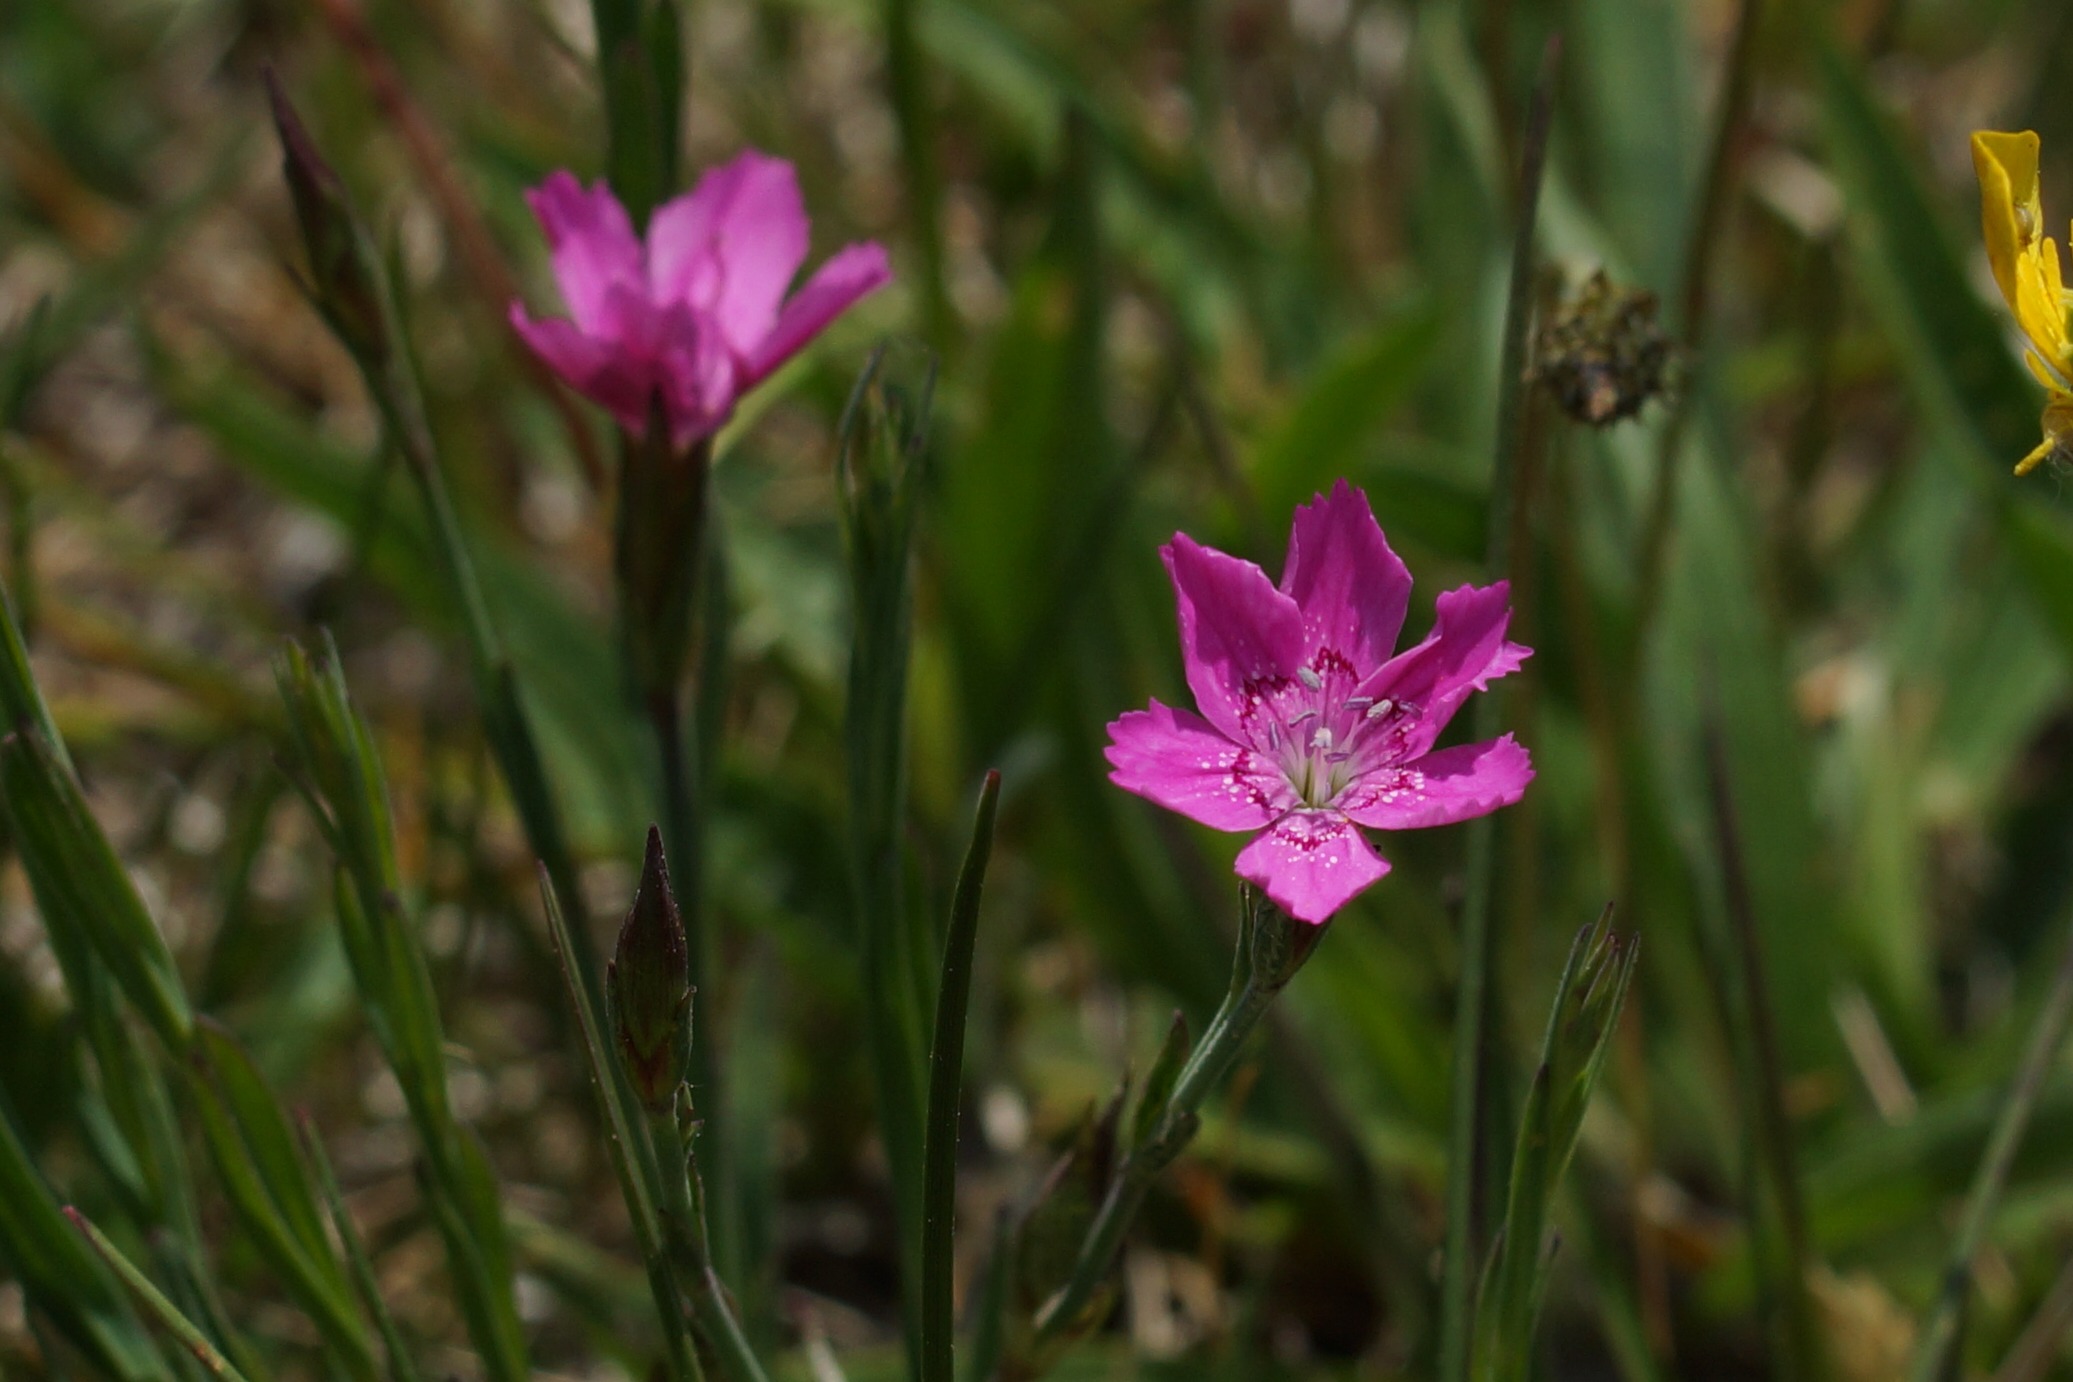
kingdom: Plantae
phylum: Tracheophyta
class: Magnoliopsida
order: Caryophyllales
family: Caryophyllaceae
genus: Dianthus
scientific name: Dianthus deltoides
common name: Bakke-nellike
